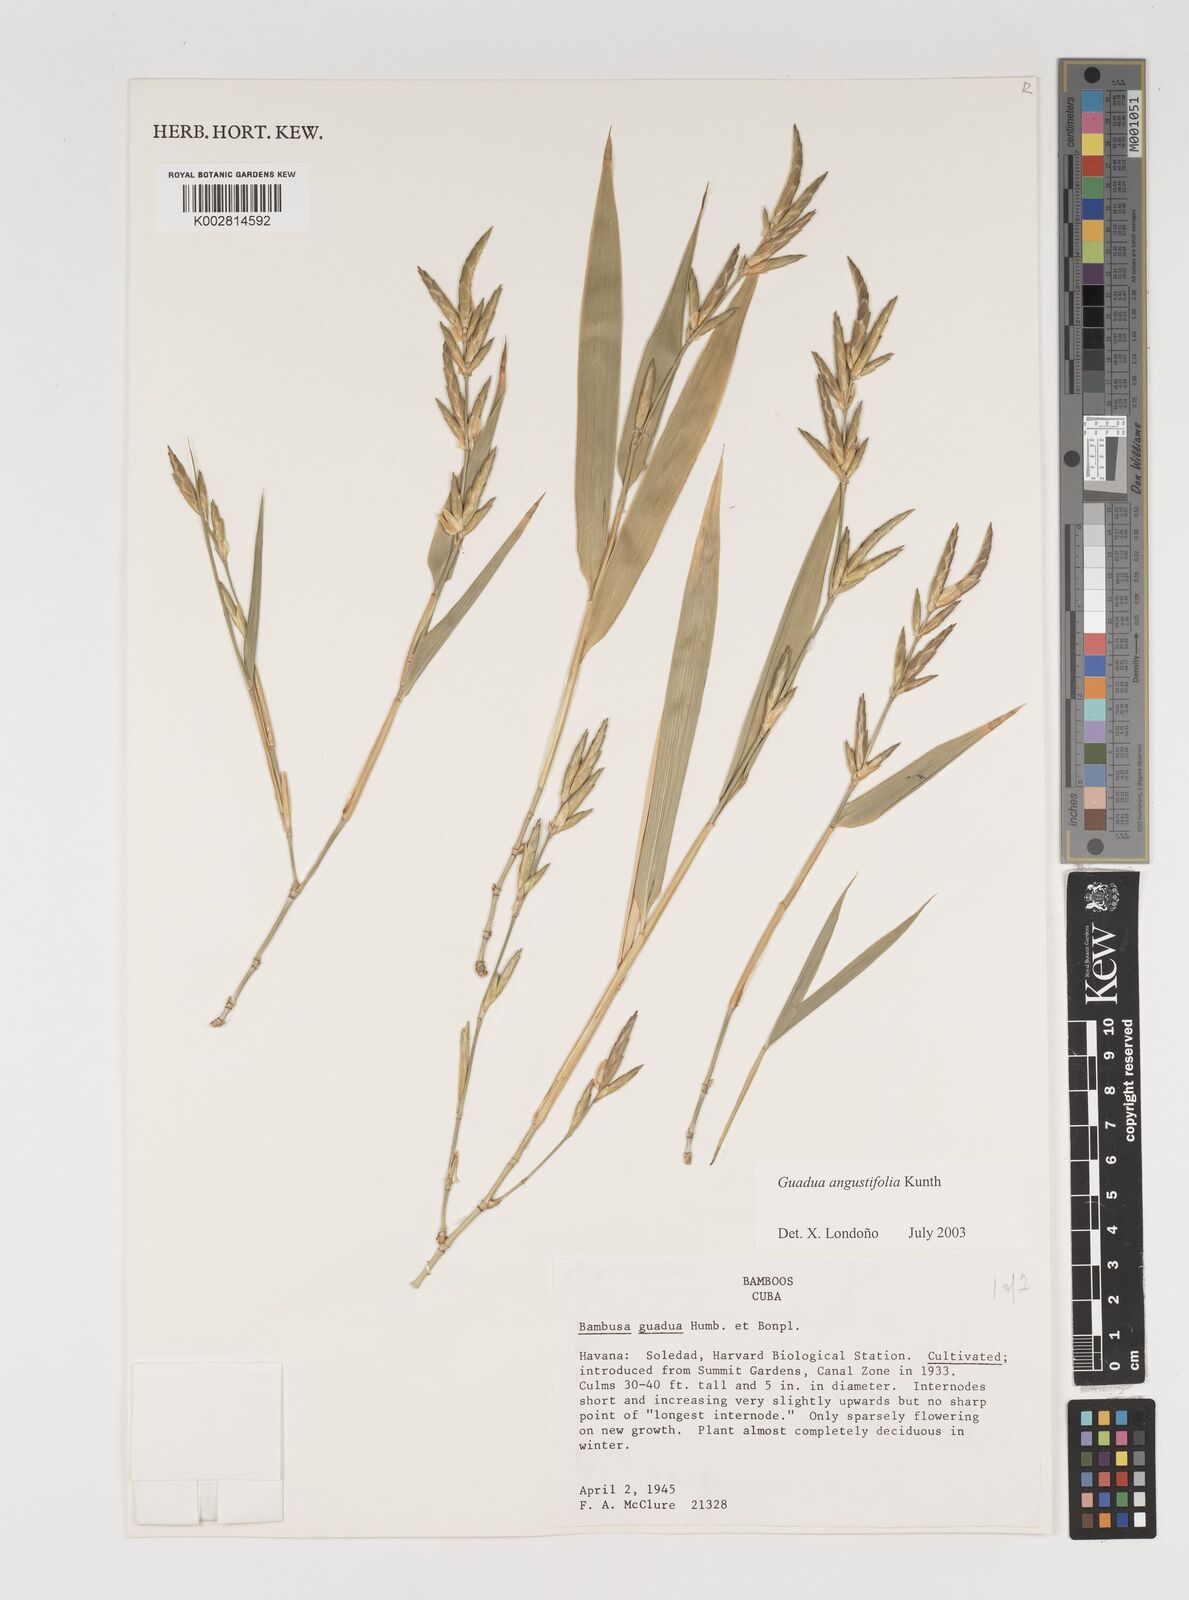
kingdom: Plantae
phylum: Tracheophyta
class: Liliopsida
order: Poales
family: Poaceae
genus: Guadua
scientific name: Guadua angustifolia
